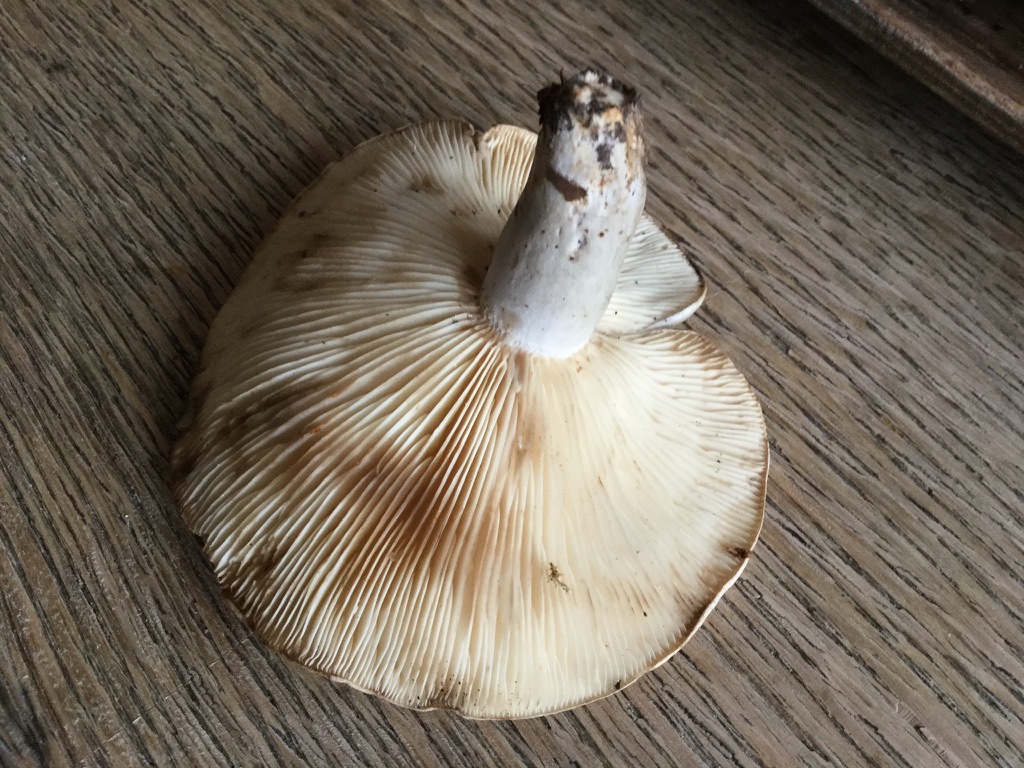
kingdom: Fungi
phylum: Basidiomycota
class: Agaricomycetes
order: Russulales
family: Russulaceae
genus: Lactarius
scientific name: Lactarius fluens
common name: lysrandet mælkehat
